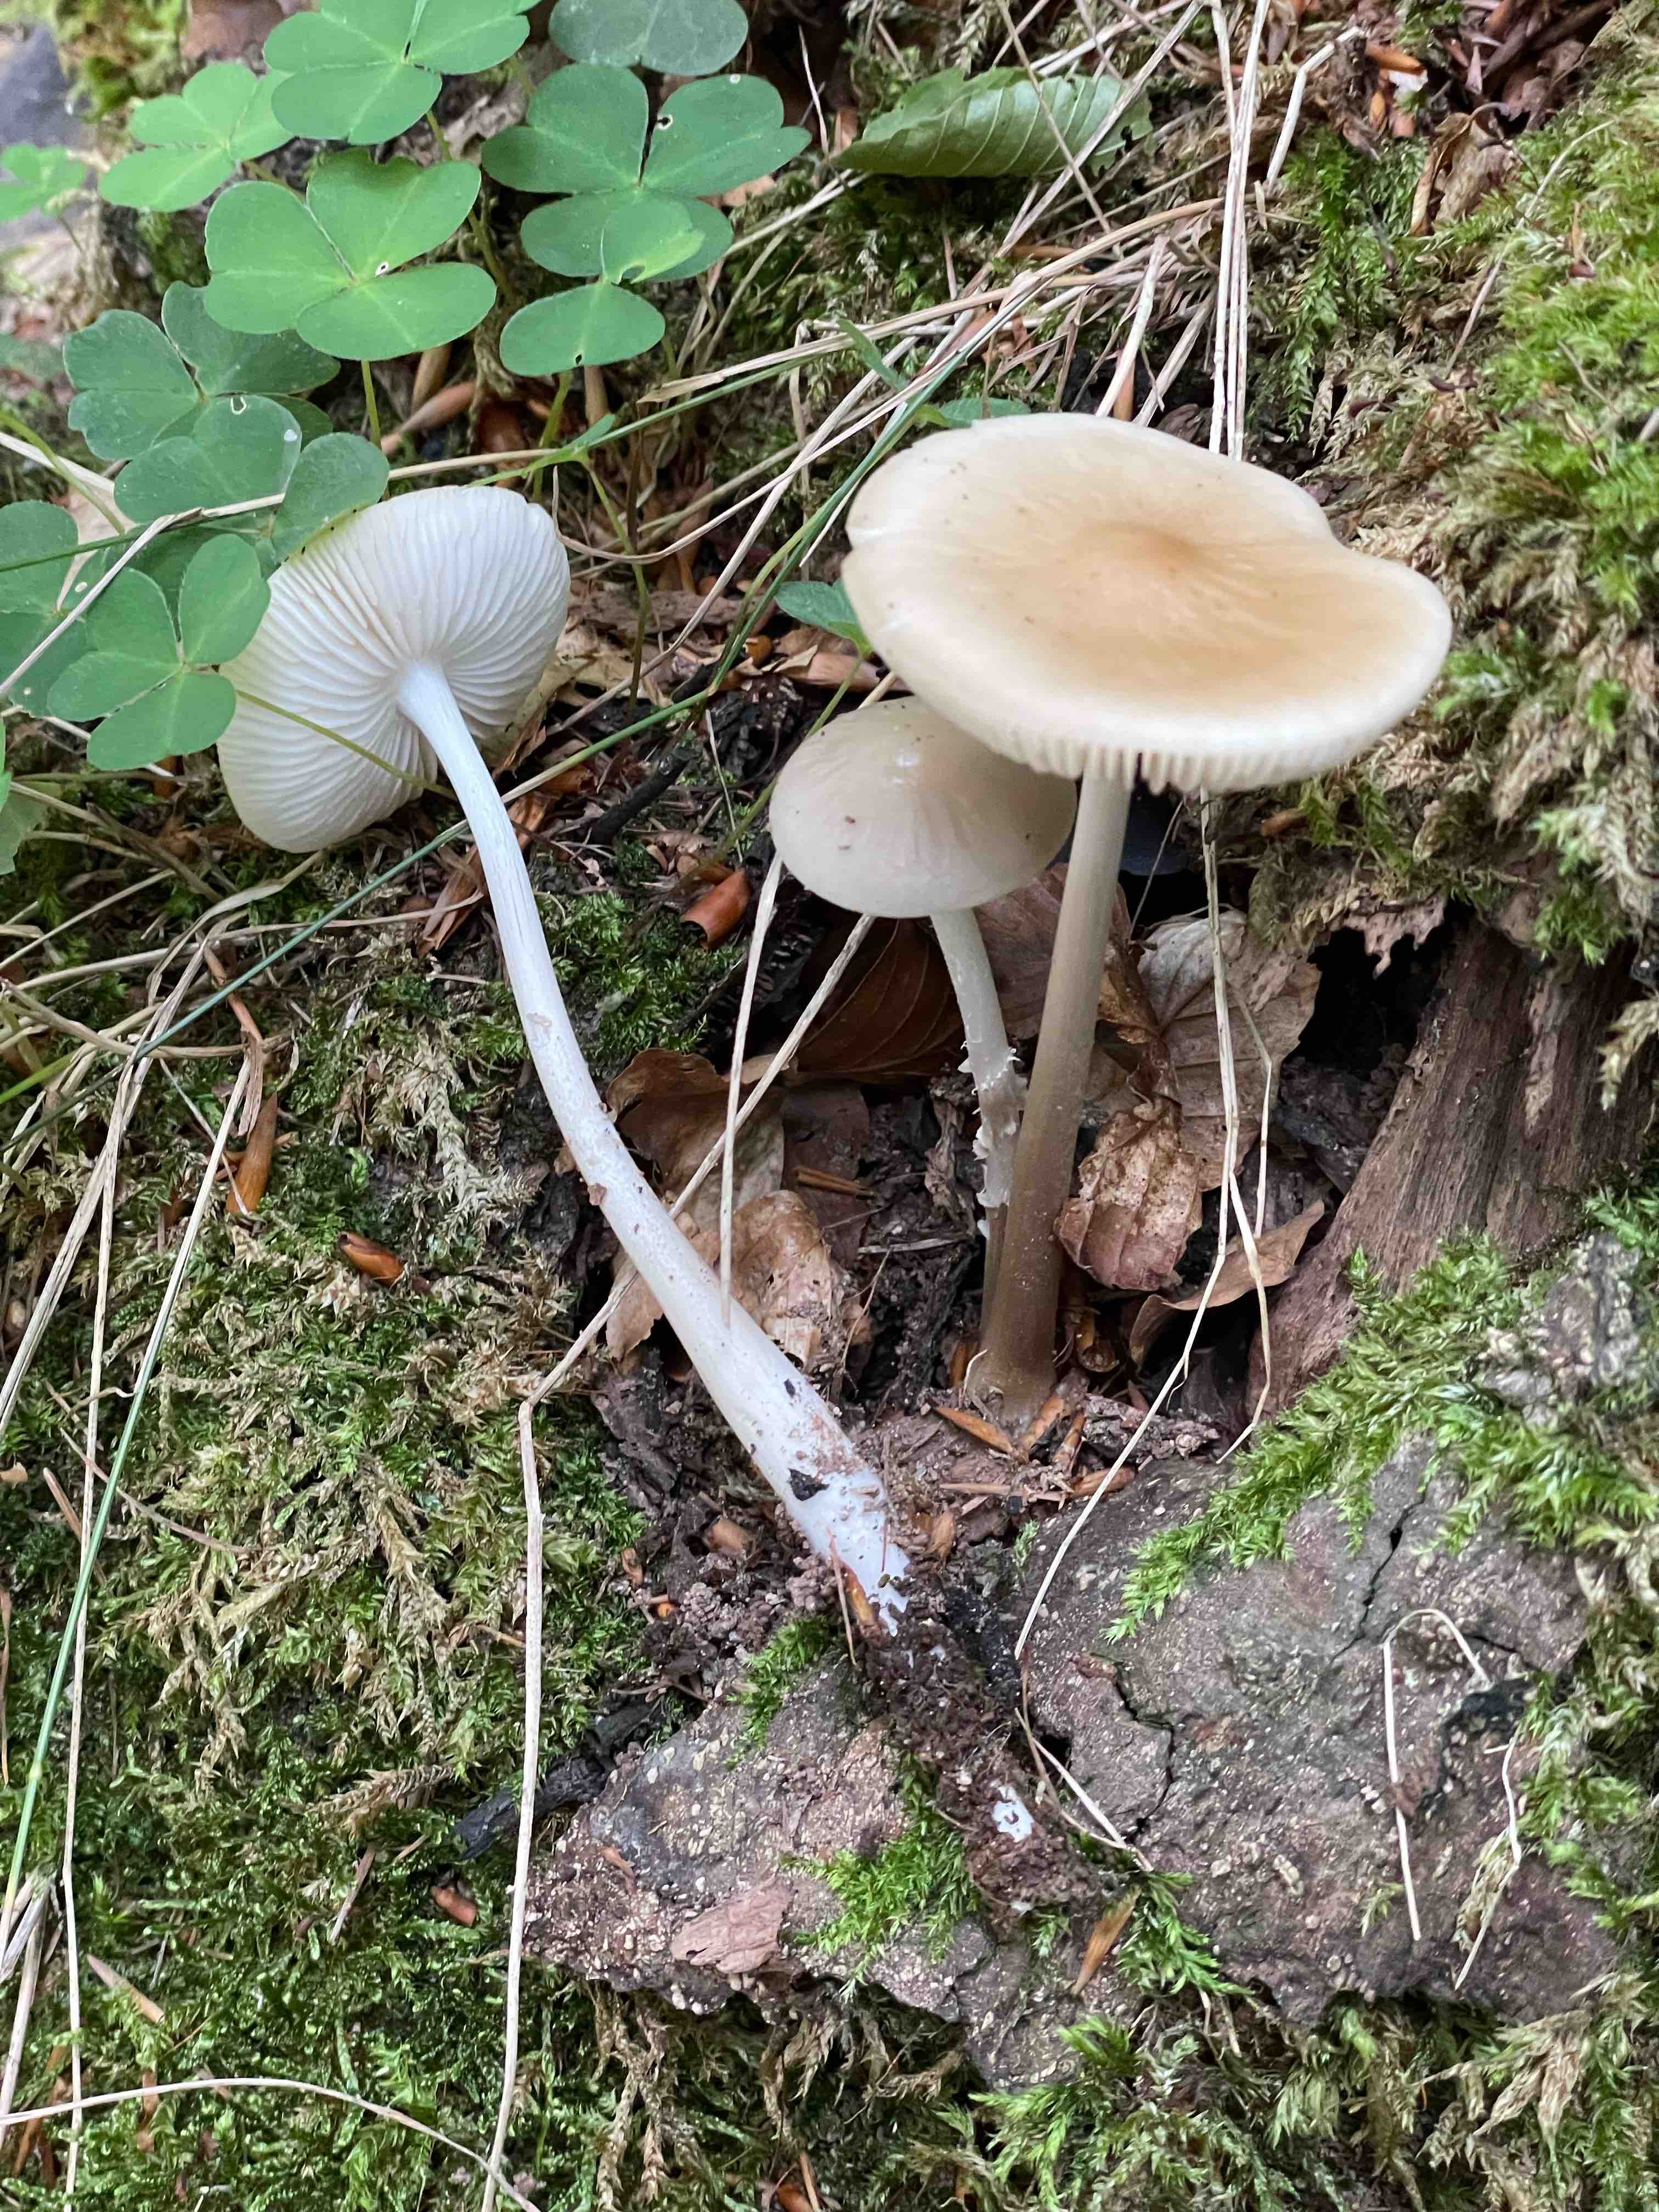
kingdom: Fungi
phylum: Basidiomycota
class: Agaricomycetes
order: Agaricales
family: Physalacriaceae
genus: Hymenopellis
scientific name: Hymenopellis radicata
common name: almindelig pælerodshat
